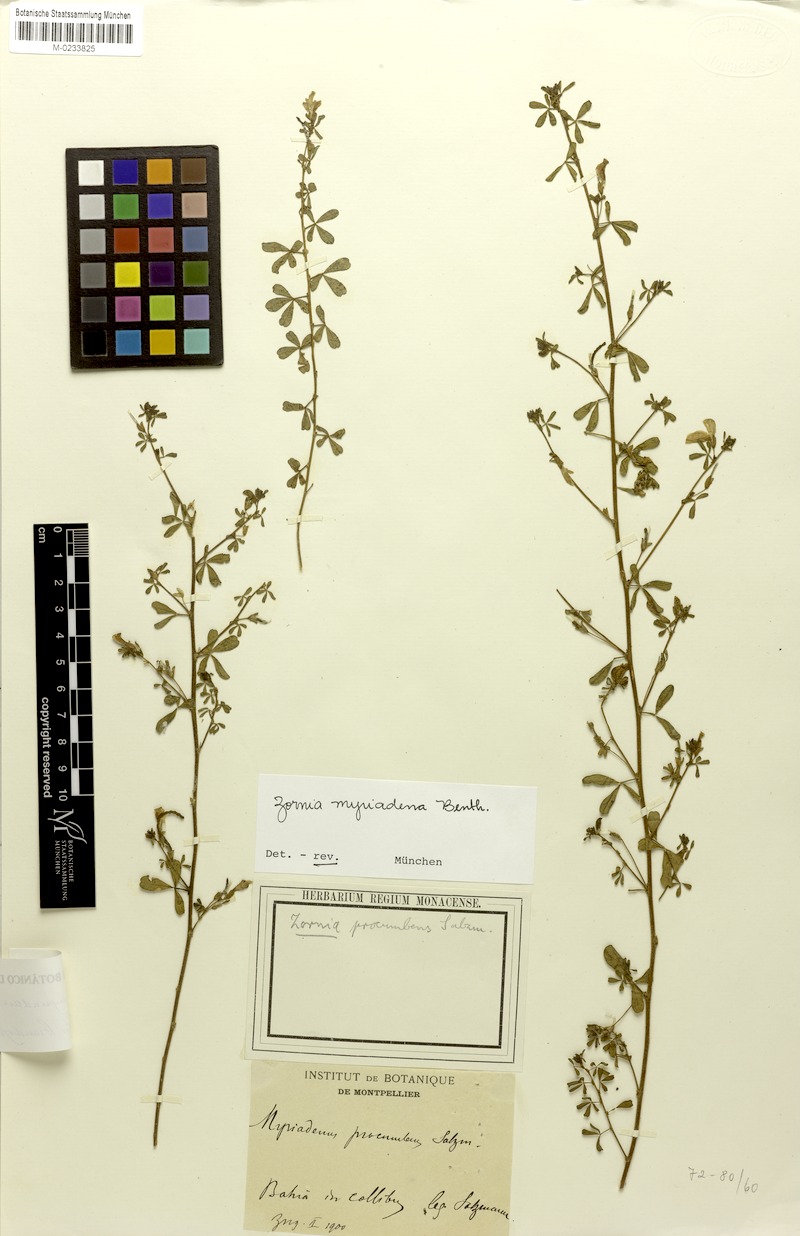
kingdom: Plantae
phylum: Tracheophyta
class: Magnoliopsida
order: Fabales
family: Fabaceae
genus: Zornia
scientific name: Zornia myriadena
